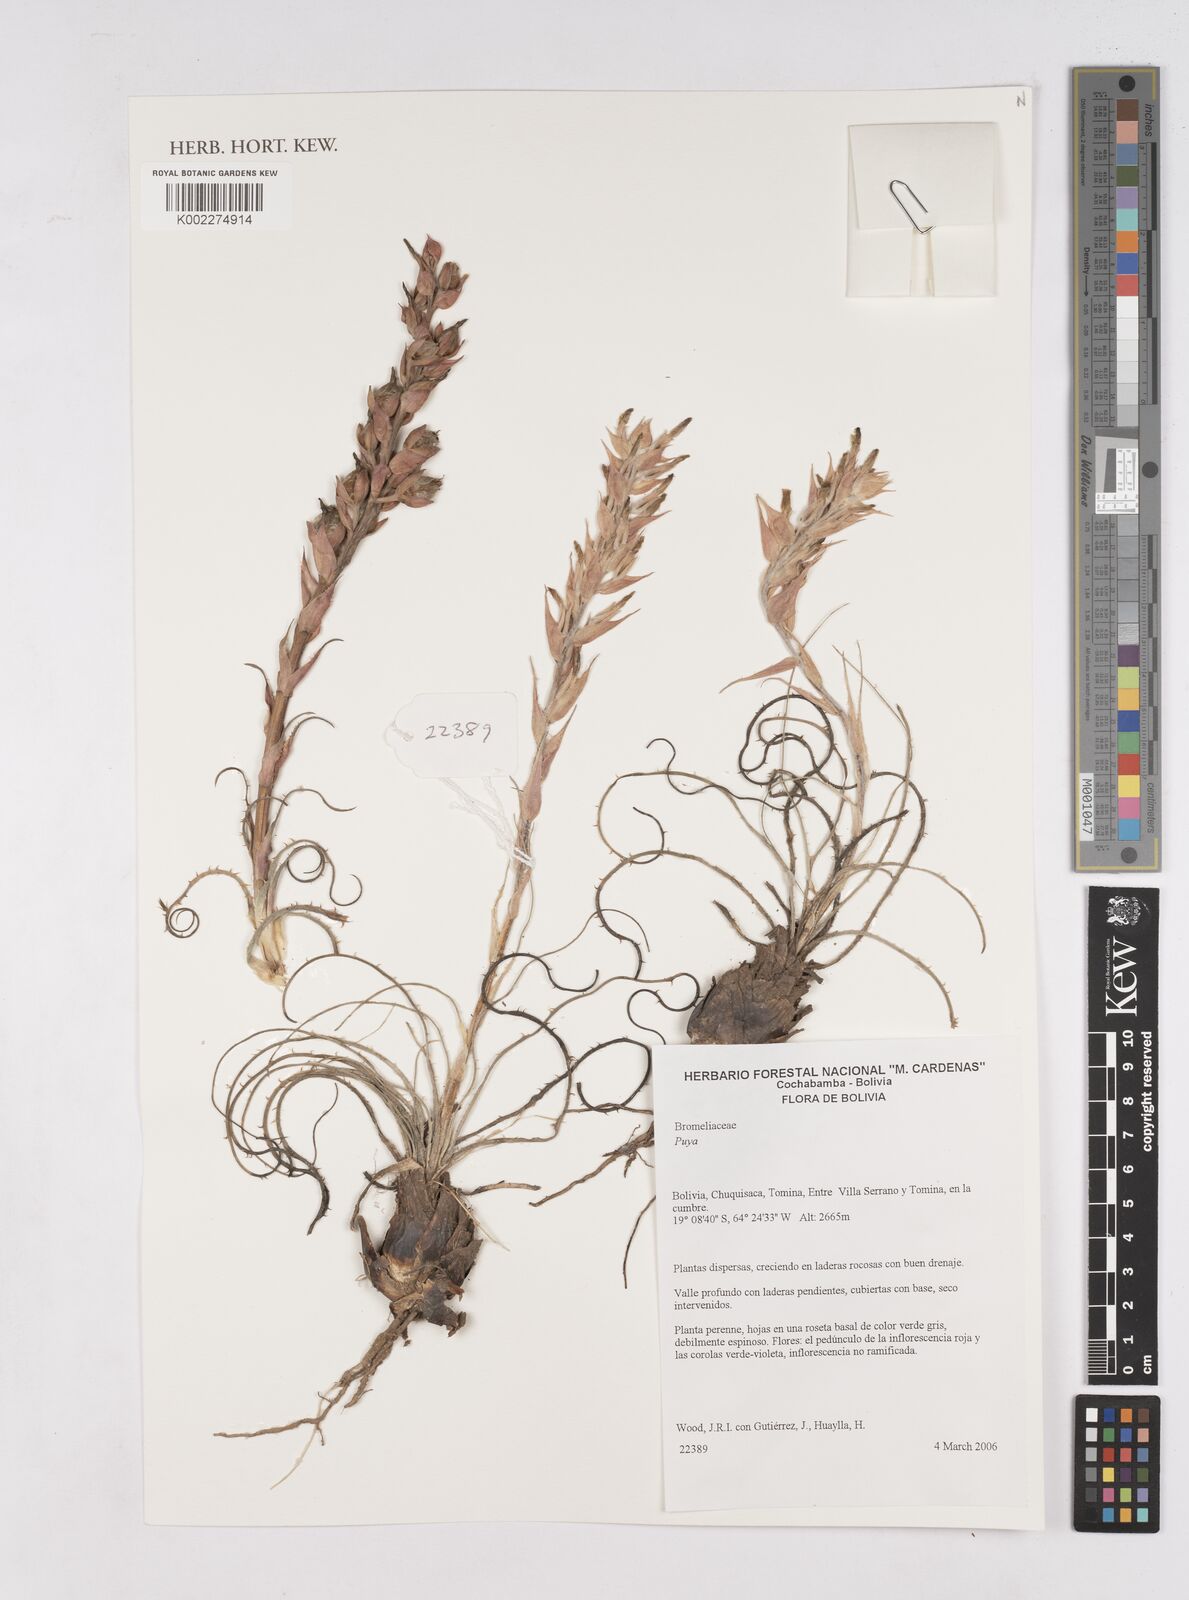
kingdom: Plantae
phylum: Tracheophyta
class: Liliopsida
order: Poales
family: Bromeliaceae
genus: Puya
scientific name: Puya
